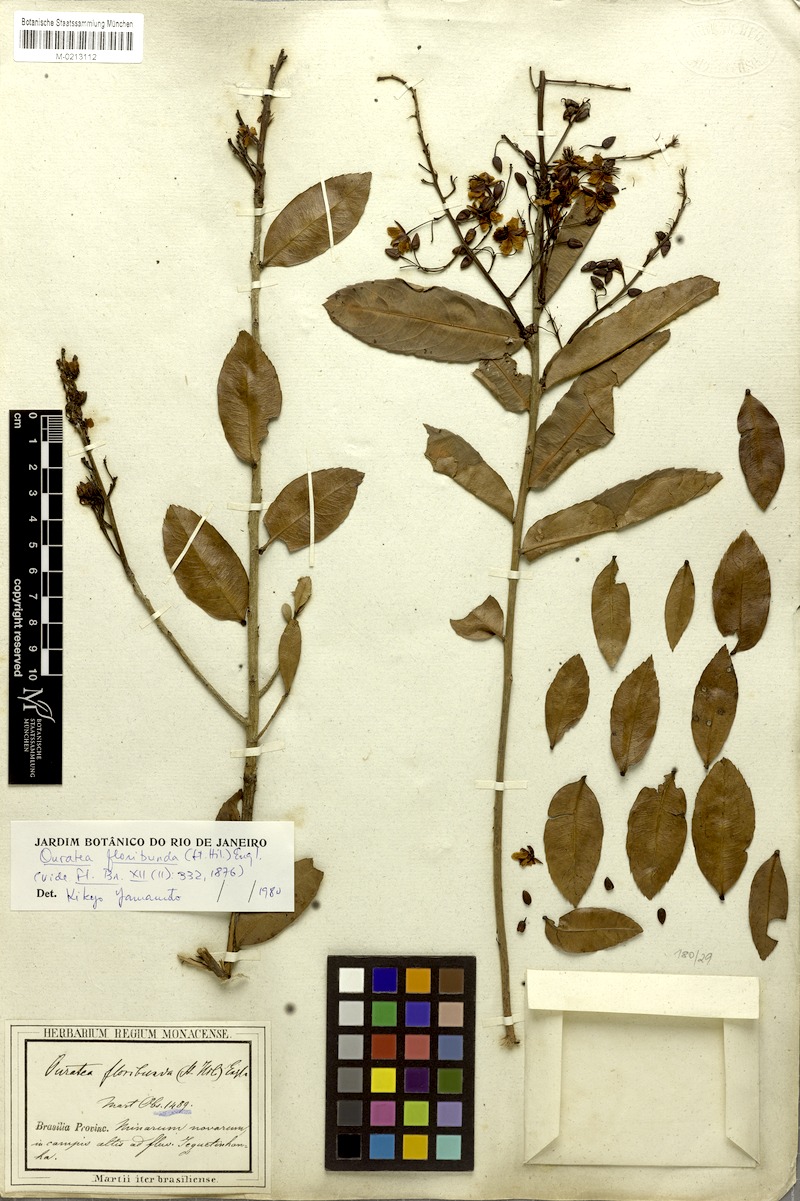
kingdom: Plantae
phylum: Tracheophyta
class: Magnoliopsida
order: Malpighiales
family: Ochnaceae
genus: Ouratea
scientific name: Ouratea floribunda
